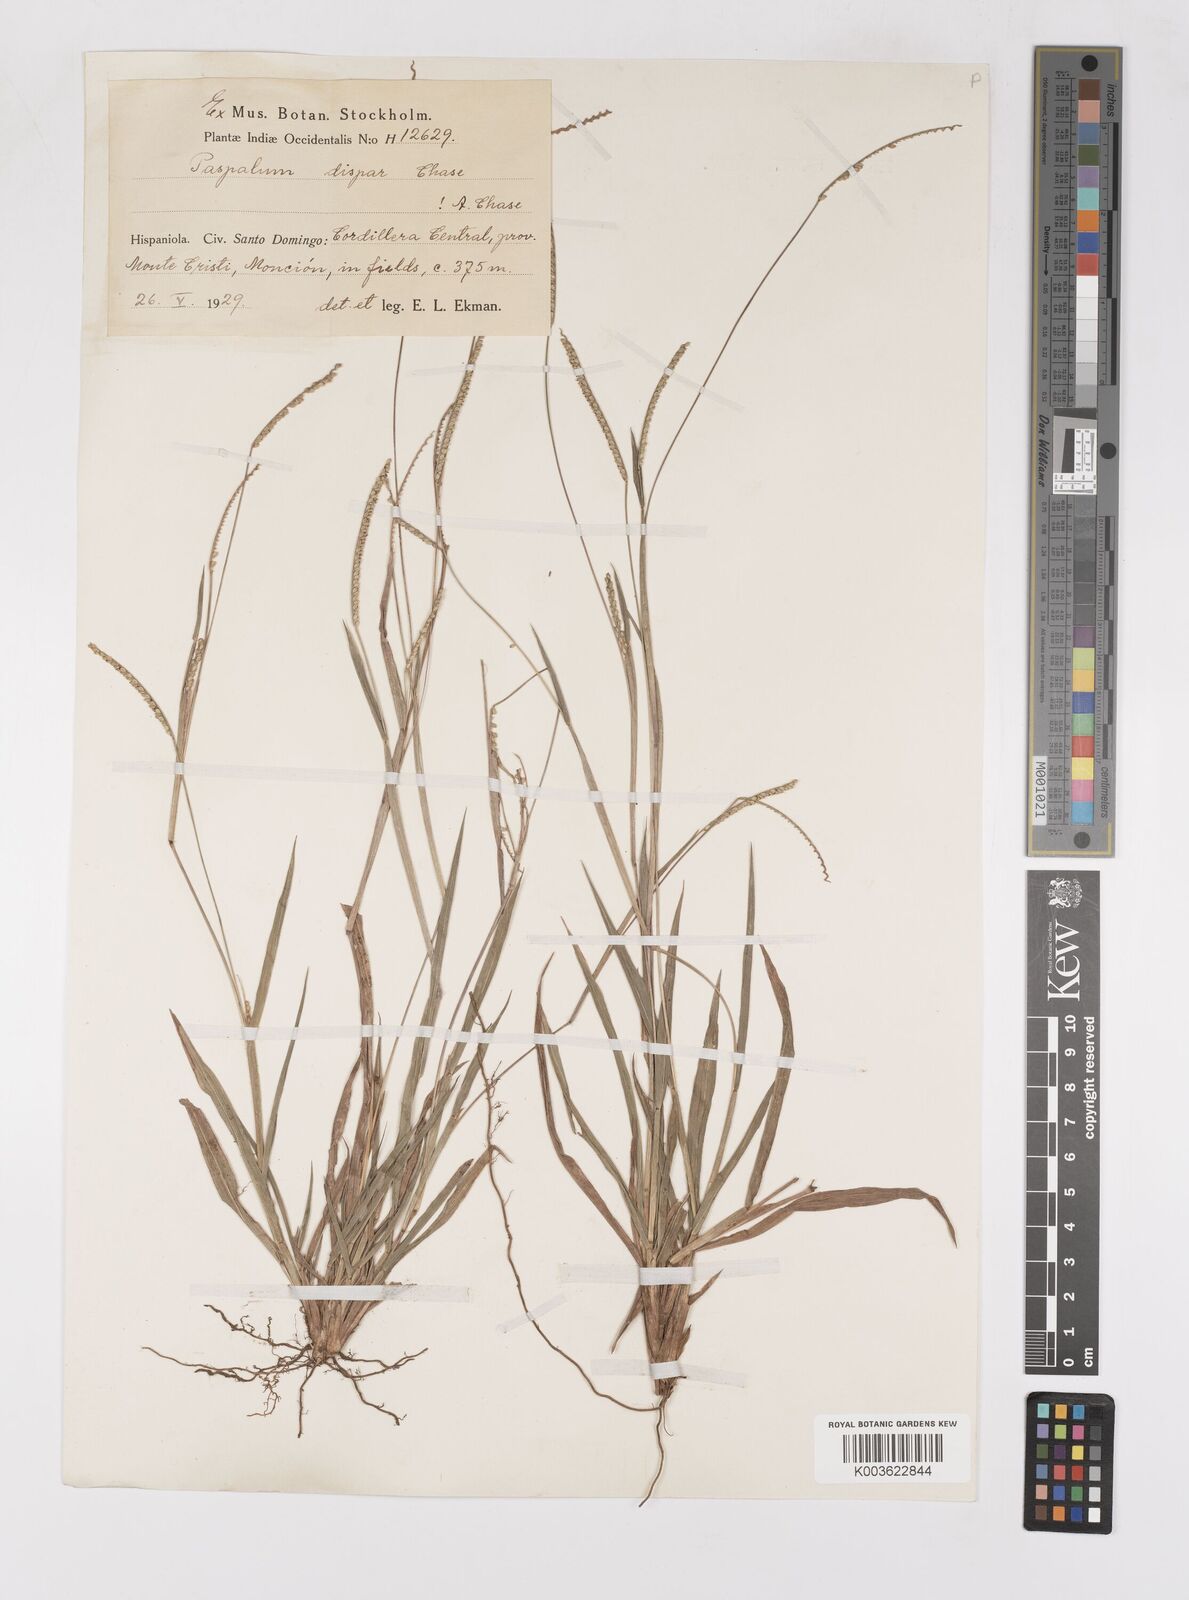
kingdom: Plantae
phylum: Tracheophyta
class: Liliopsida
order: Poales
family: Poaceae
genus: Paspalum
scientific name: Paspalum dispar
